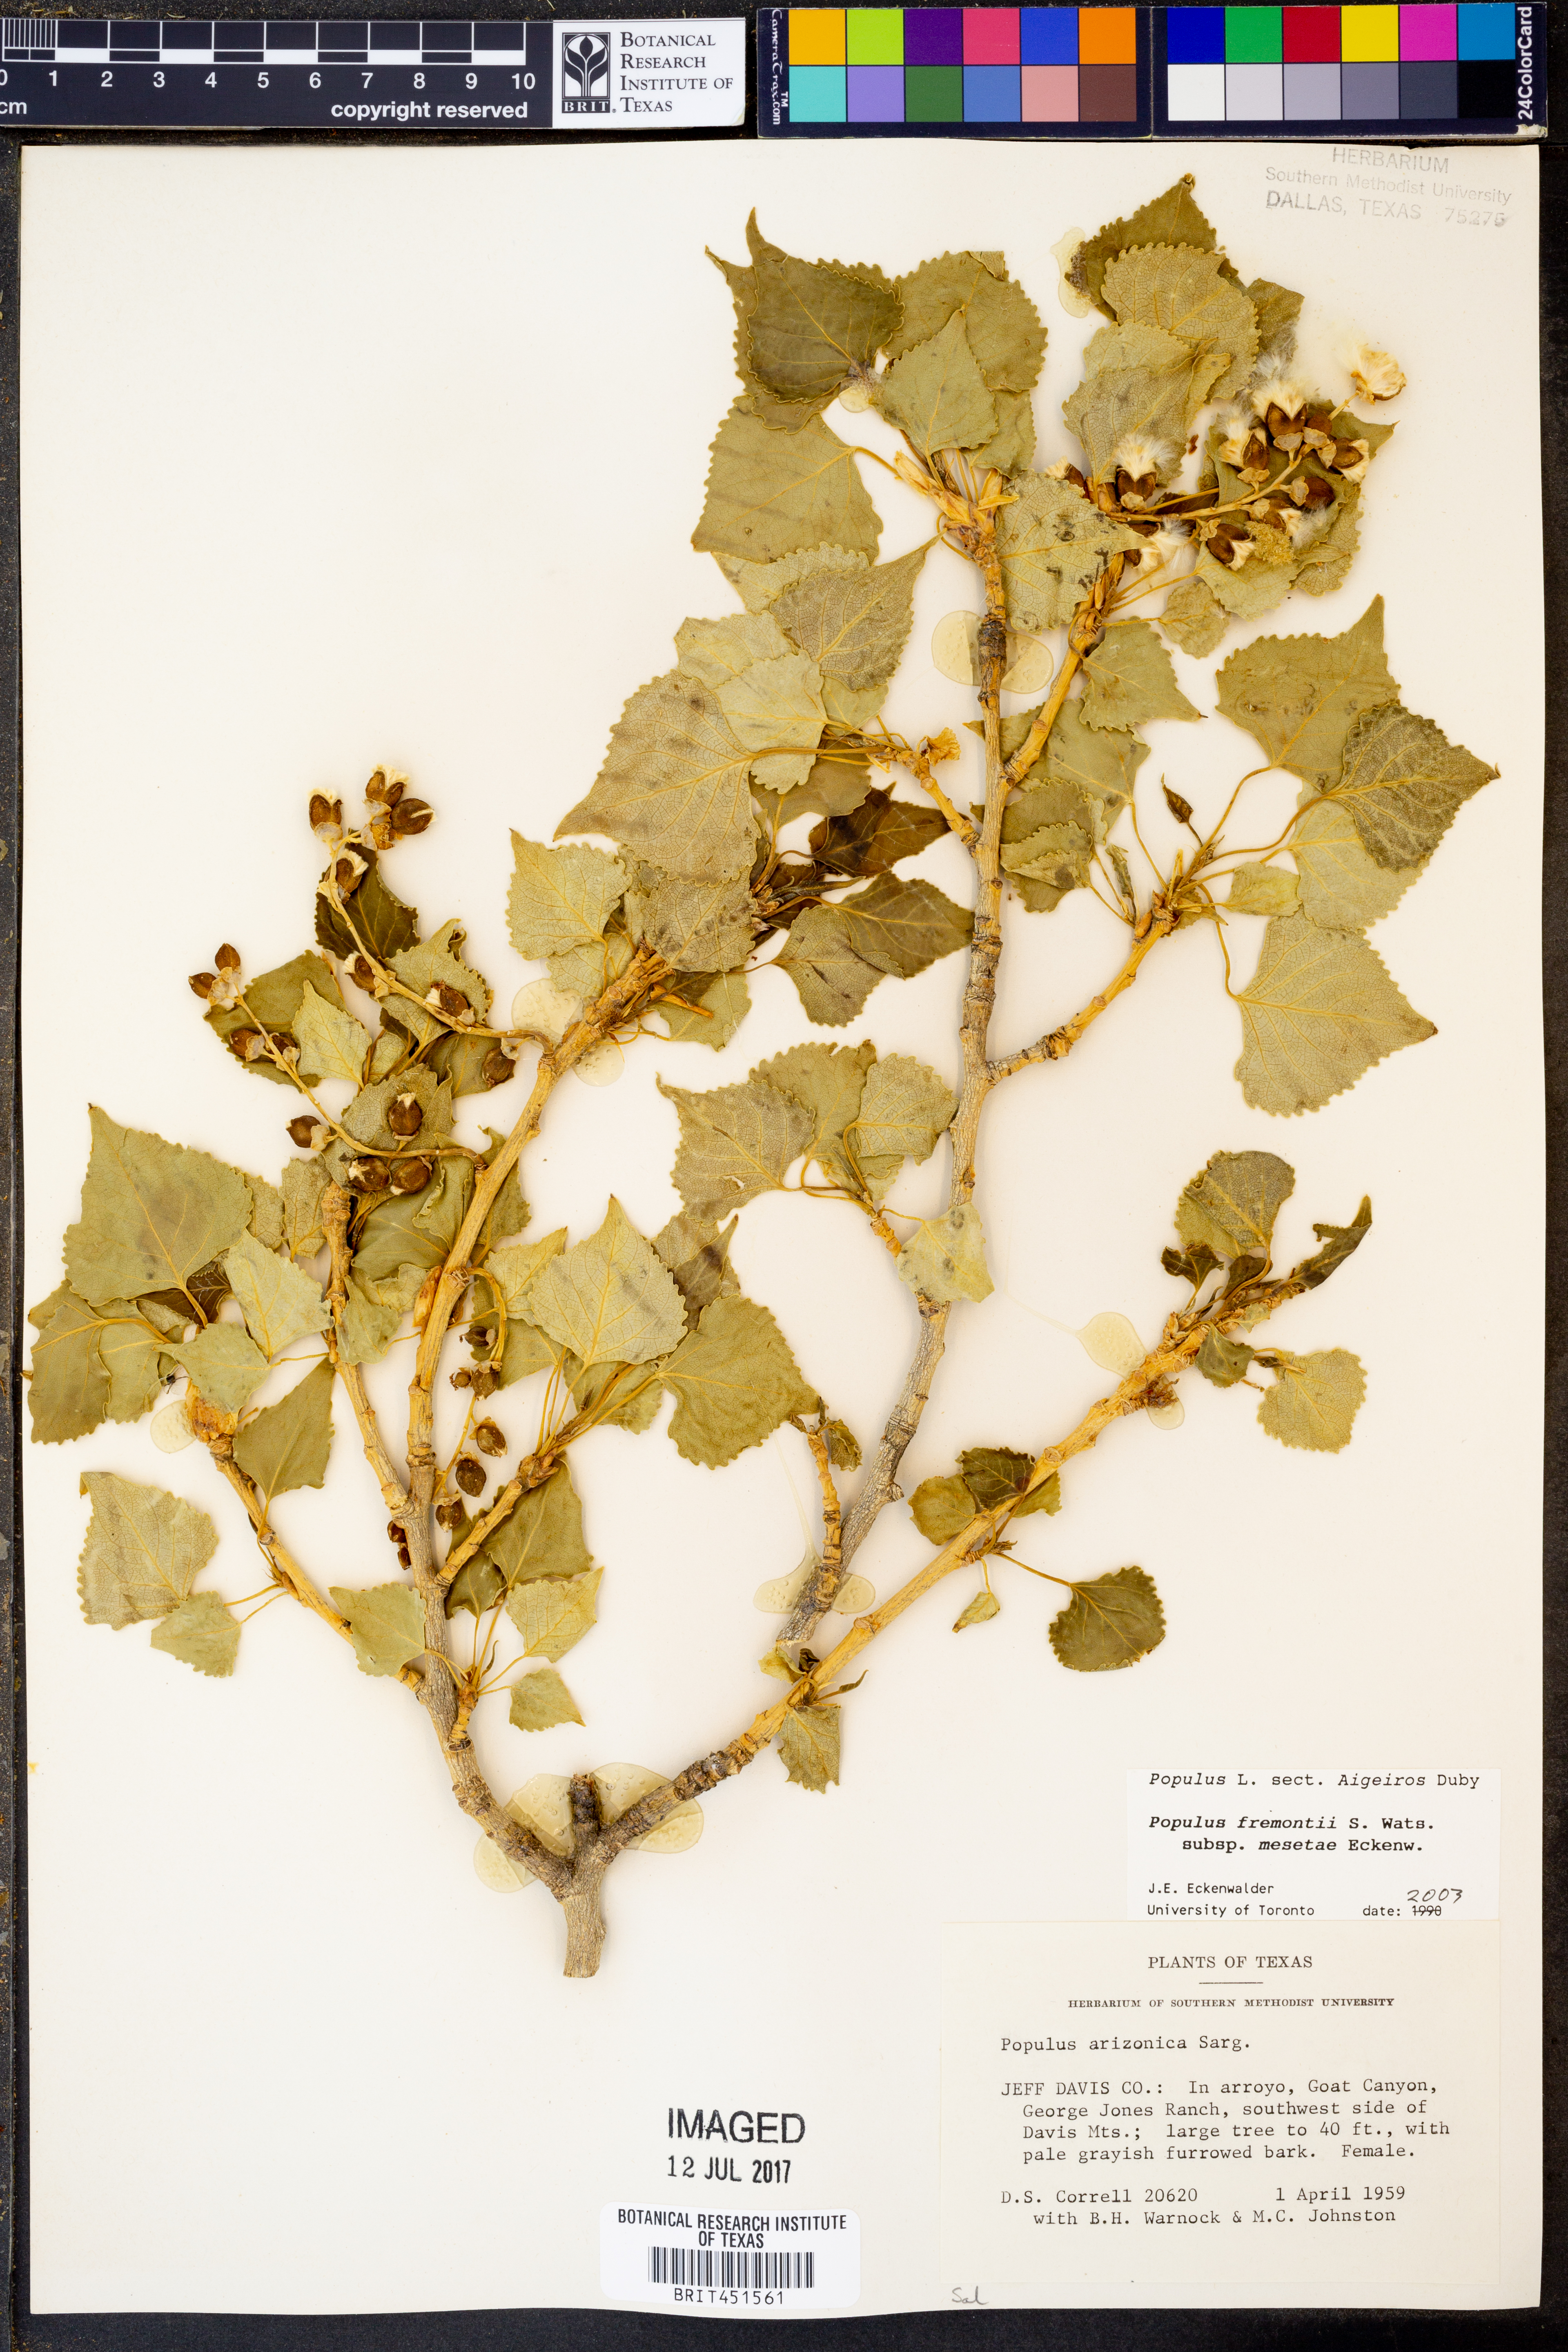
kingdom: Plantae
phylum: Tracheophyta
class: Magnoliopsida
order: Malpighiales
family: Salicaceae
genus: Populus
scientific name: Populus fremontii
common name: Fremont's cottonwood
